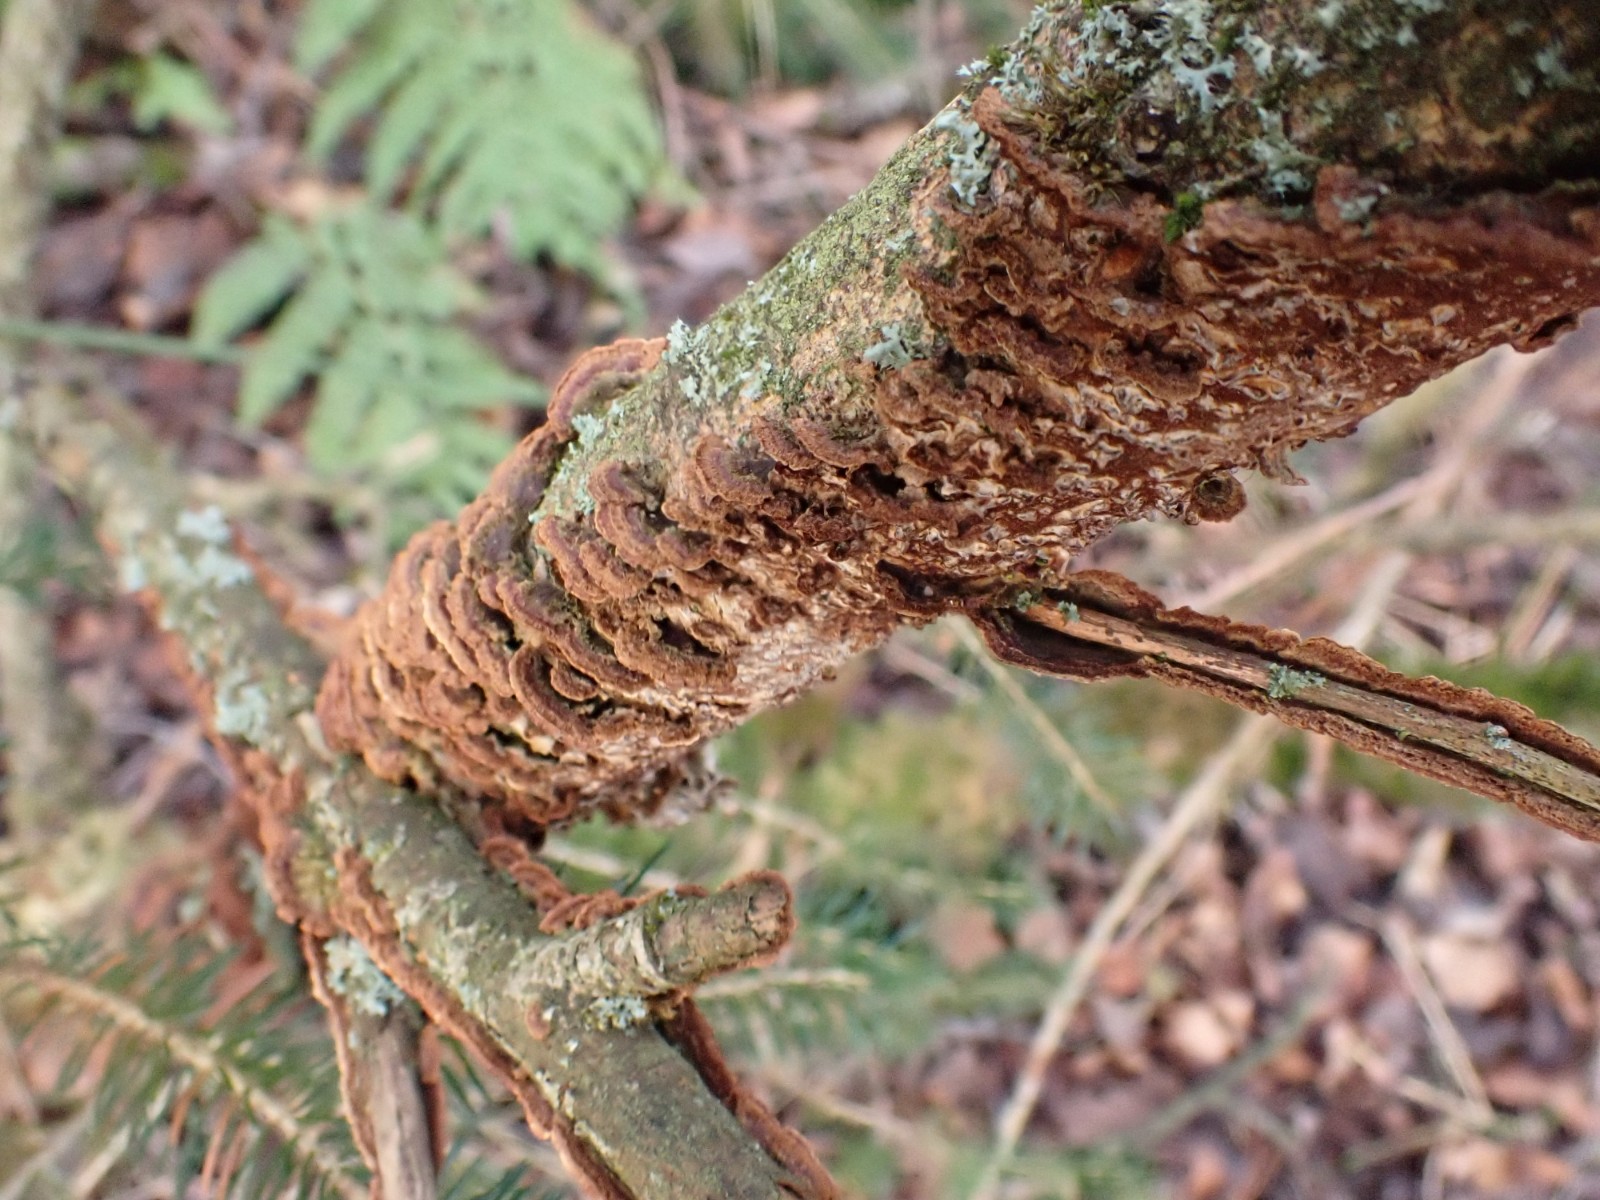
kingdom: Fungi
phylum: Basidiomycota
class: Agaricomycetes
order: Hymenochaetales
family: Hymenochaetaceae
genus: Hydnoporia
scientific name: Hydnoporia tabacina
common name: tobaksbrun ruslædersvamp
